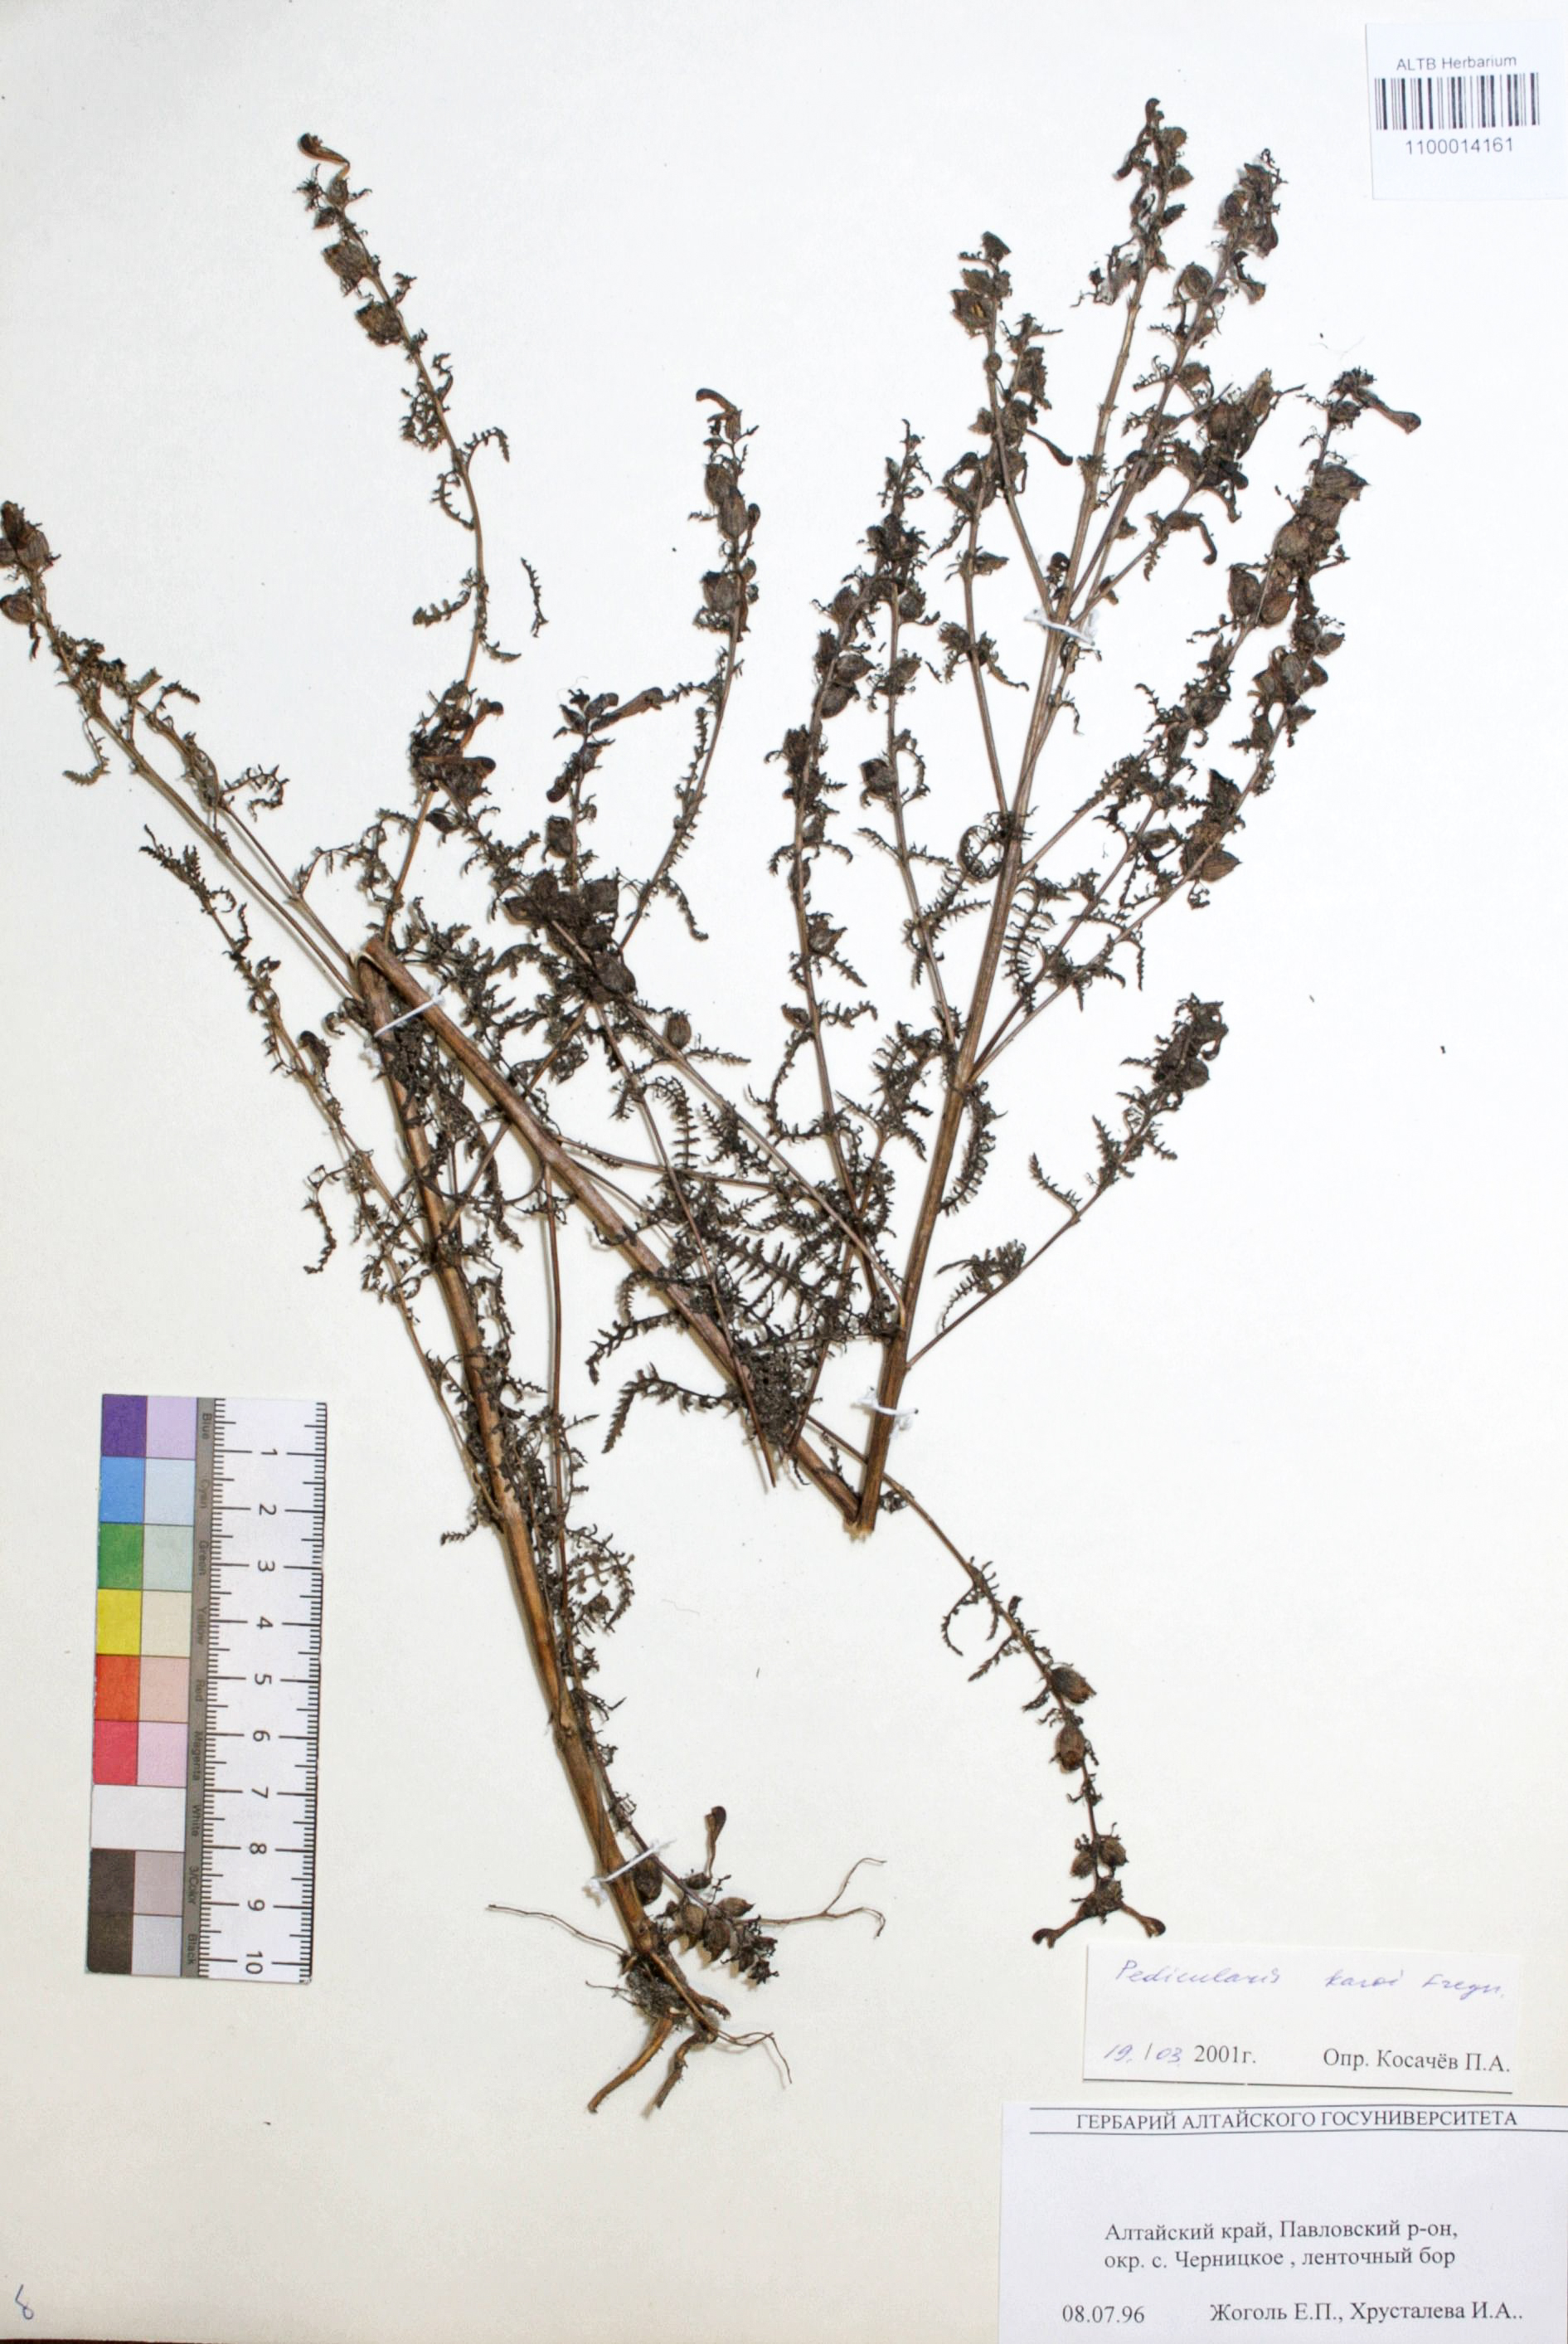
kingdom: Plantae
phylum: Tracheophyta
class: Magnoliopsida
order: Lamiales
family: Orobanchaceae
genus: Pedicularis
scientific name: Pedicularis karoi
